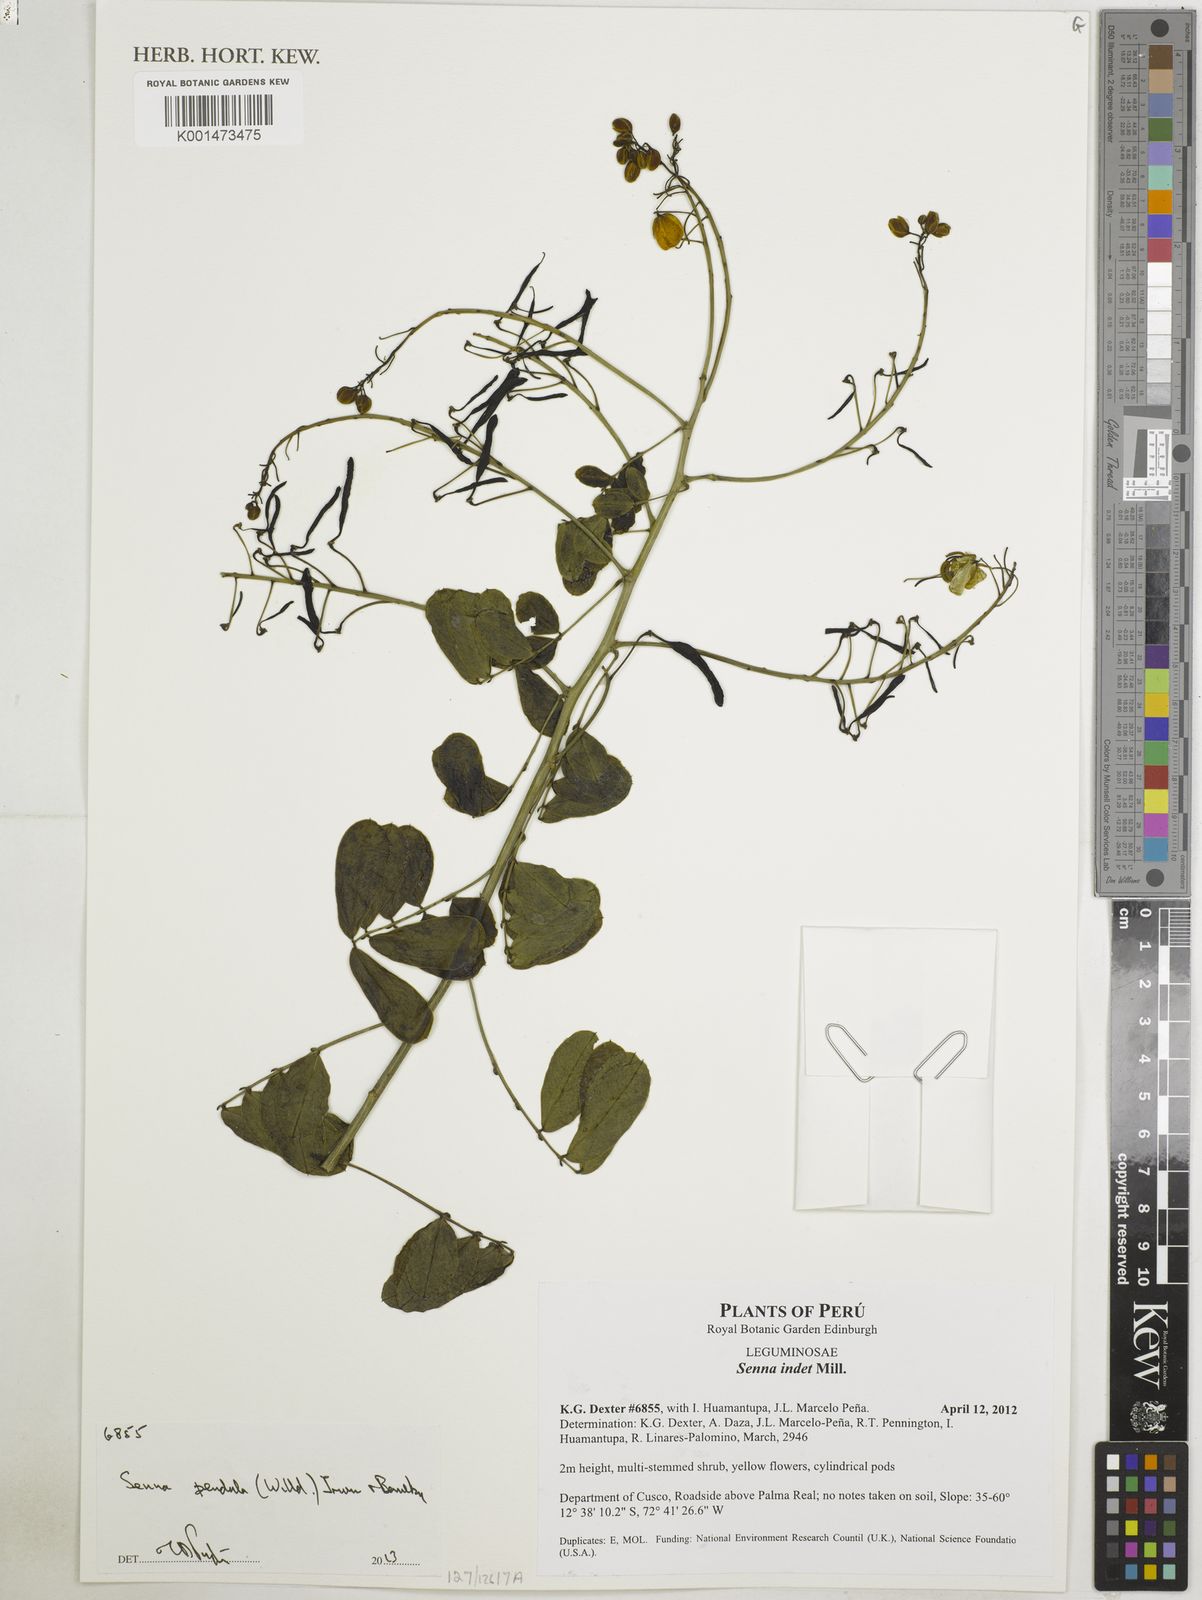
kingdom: Plantae
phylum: Tracheophyta
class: Magnoliopsida
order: Fabales
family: Fabaceae
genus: Senna
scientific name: Senna pendula
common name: Easter cassia
